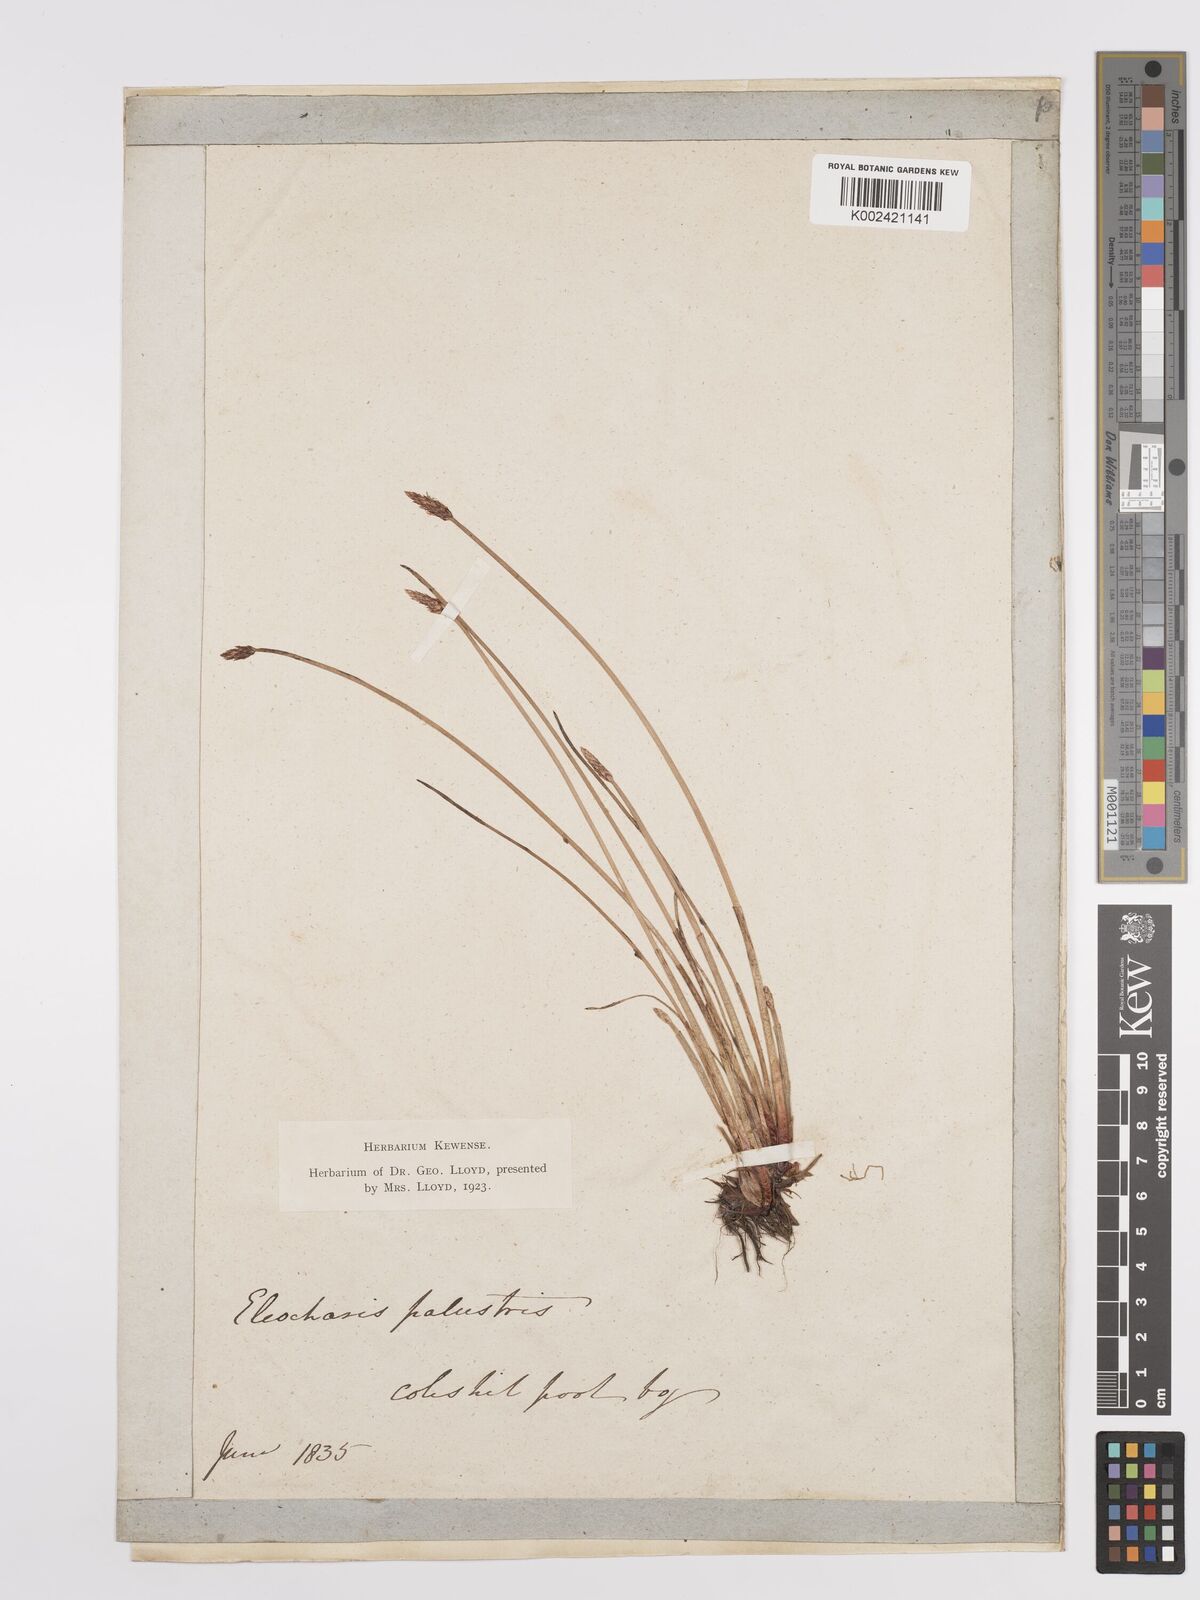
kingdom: Plantae
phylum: Tracheophyta
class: Liliopsida
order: Poales
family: Cyperaceae
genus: Eleocharis
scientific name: Eleocharis palustris
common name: Common spike-rush
